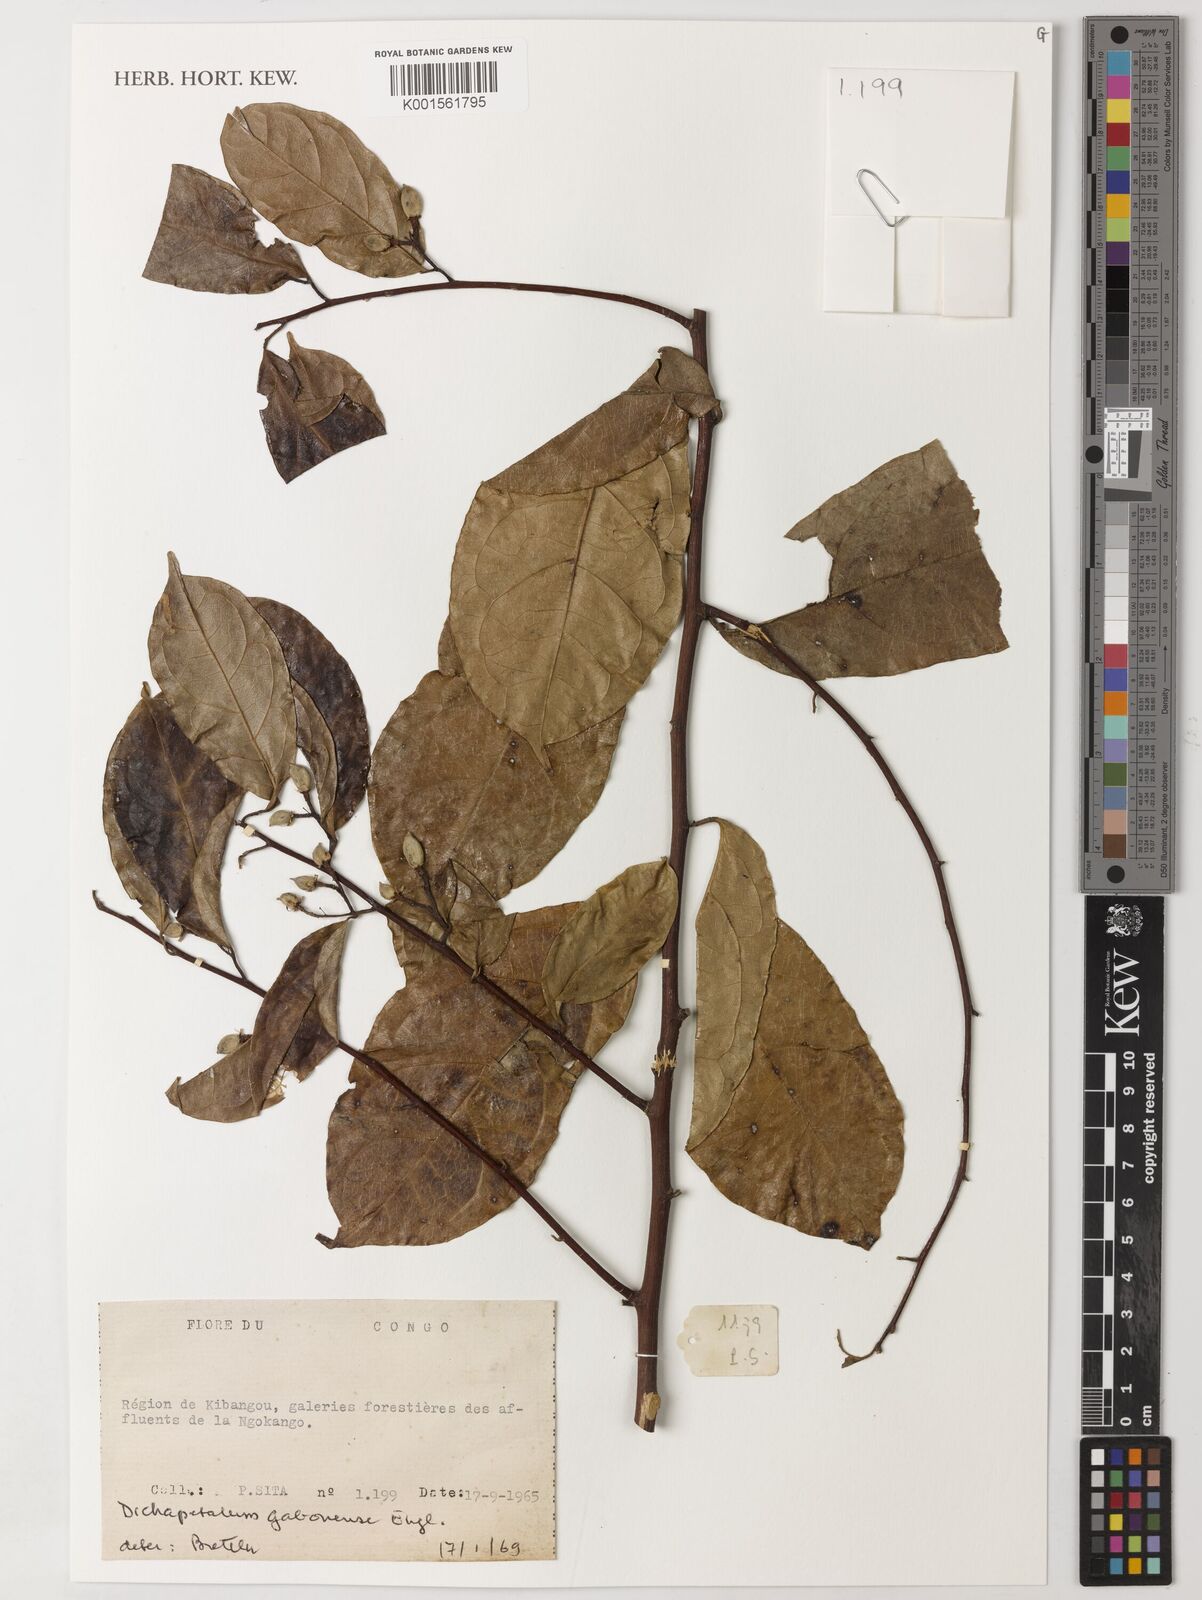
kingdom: Plantae
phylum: Tracheophyta
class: Magnoliopsida
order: Malpighiales
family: Dichapetalaceae
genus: Dichapetalum
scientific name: Dichapetalum gabonense
